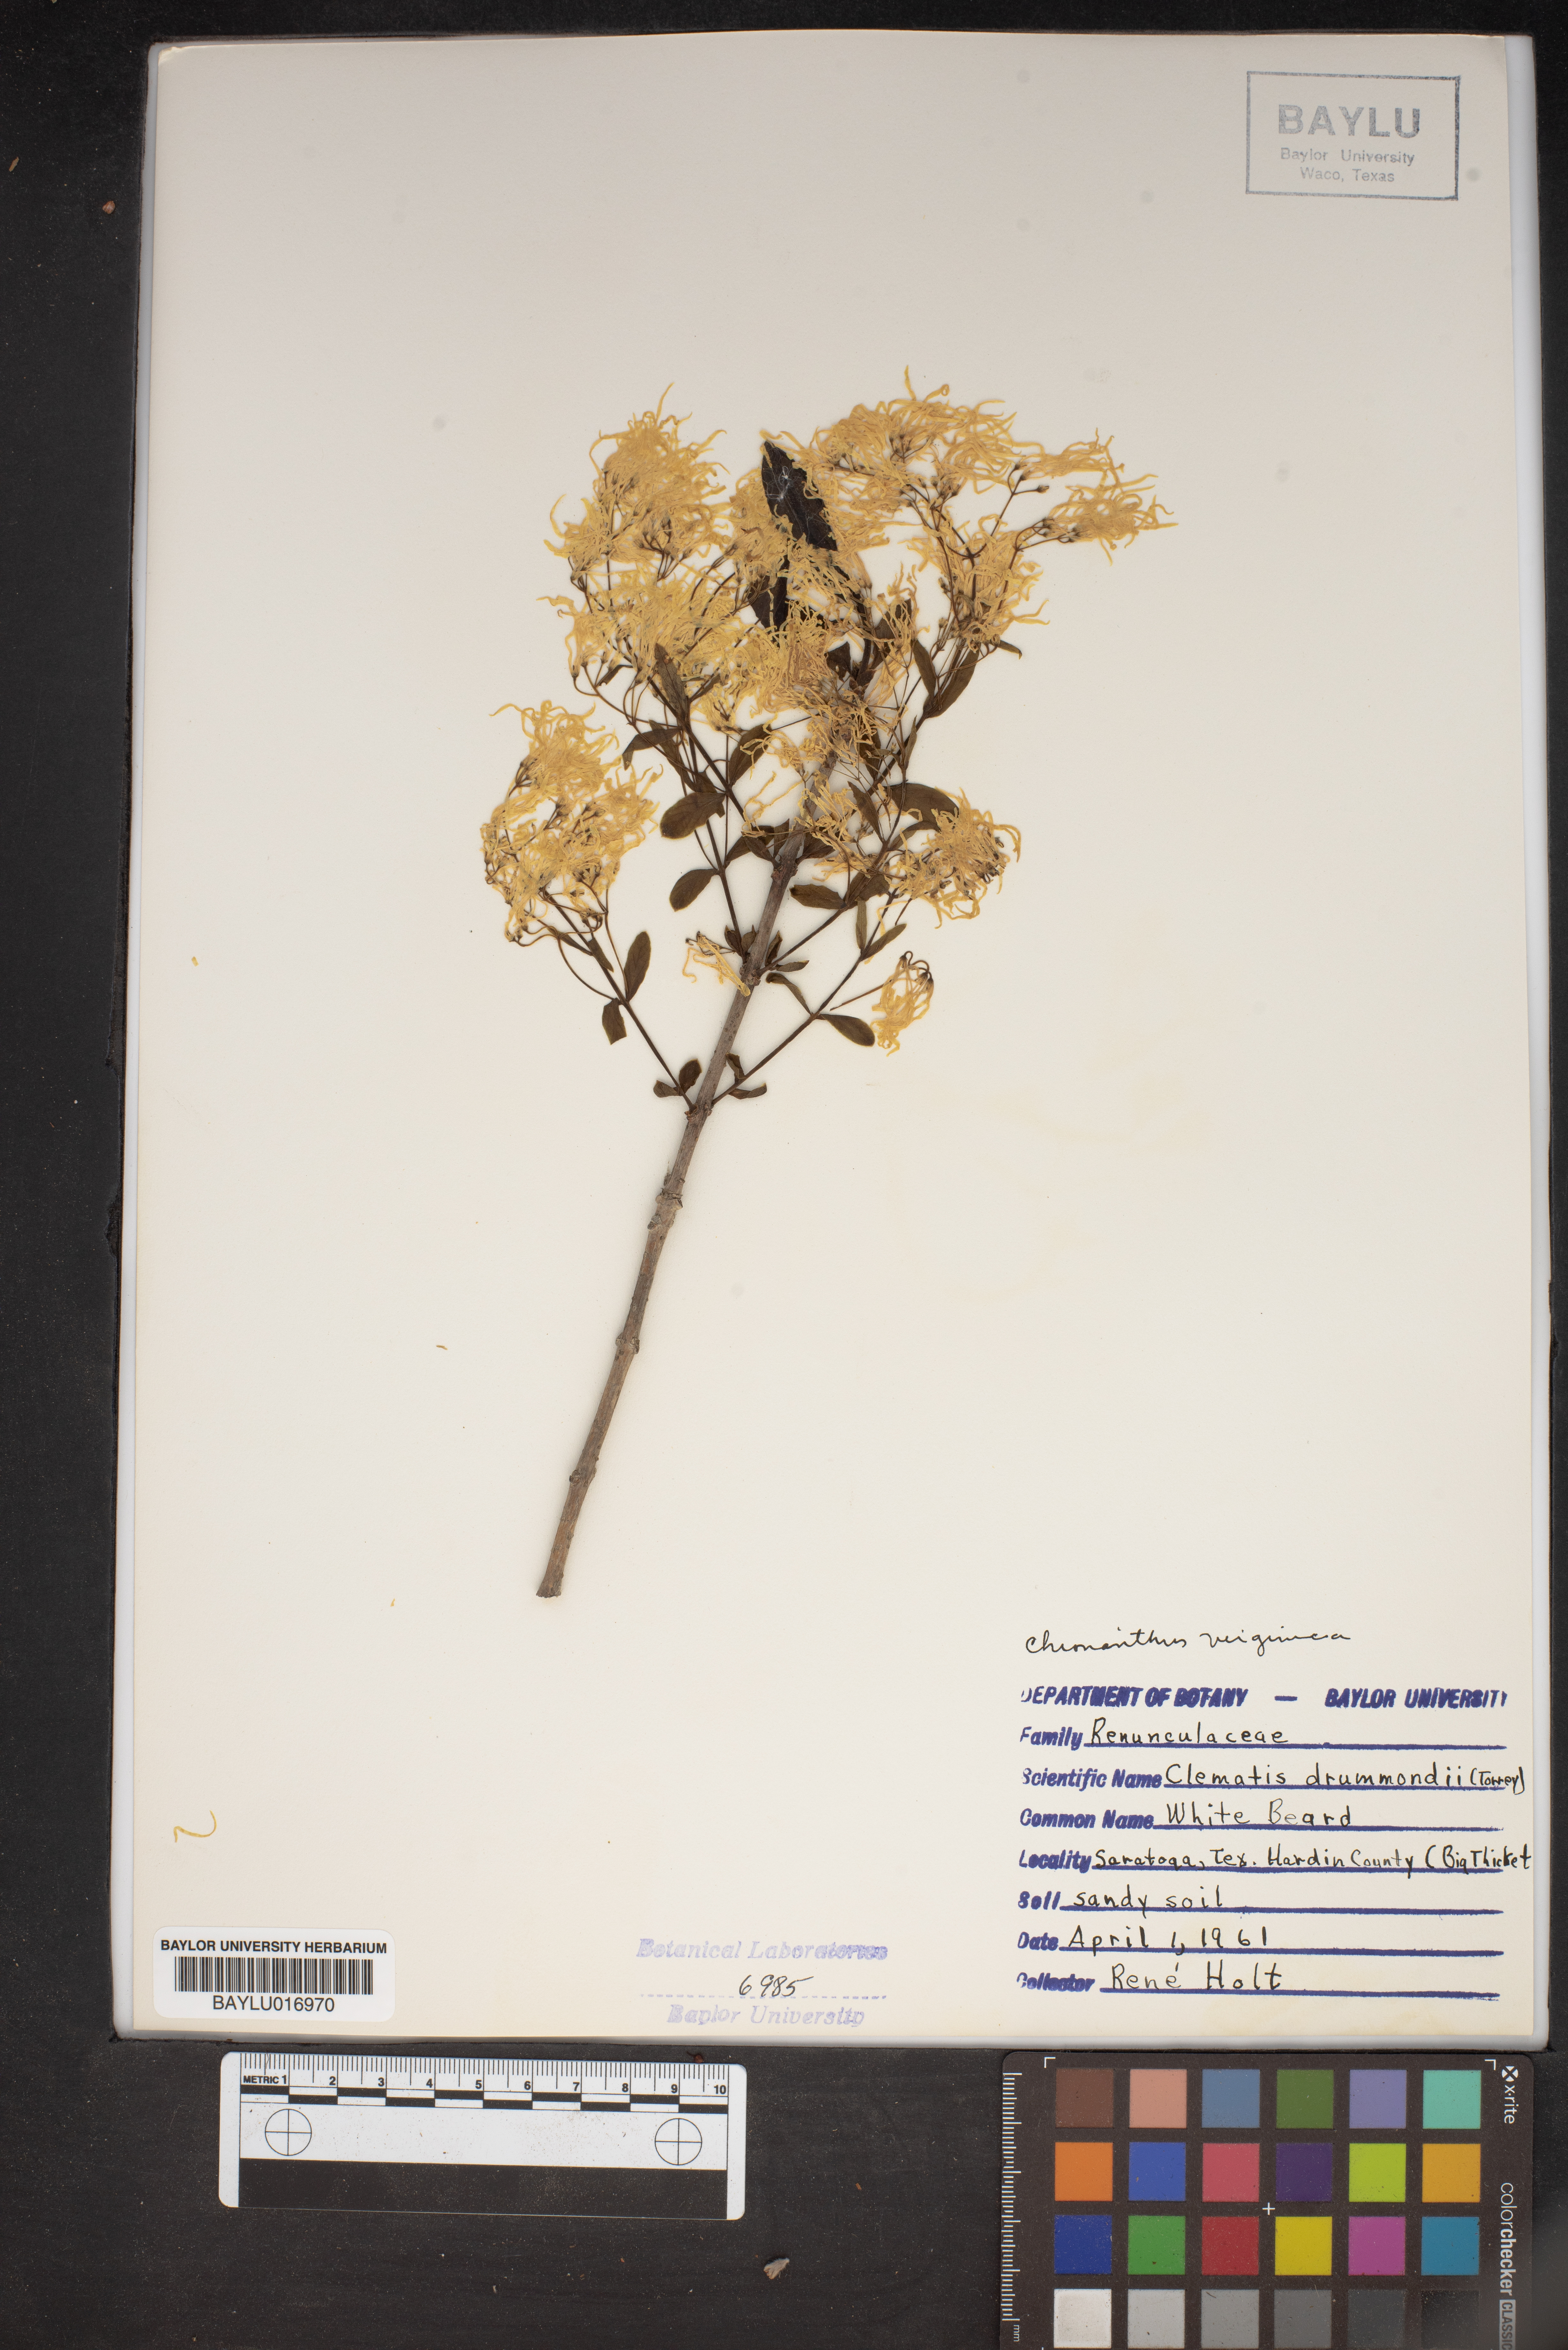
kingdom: Plantae
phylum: Tracheophyta
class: Magnoliopsida
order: Ranunculales
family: Ranunculaceae
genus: Clematis
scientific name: Clematis drummondii
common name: Texas virgin's bower
